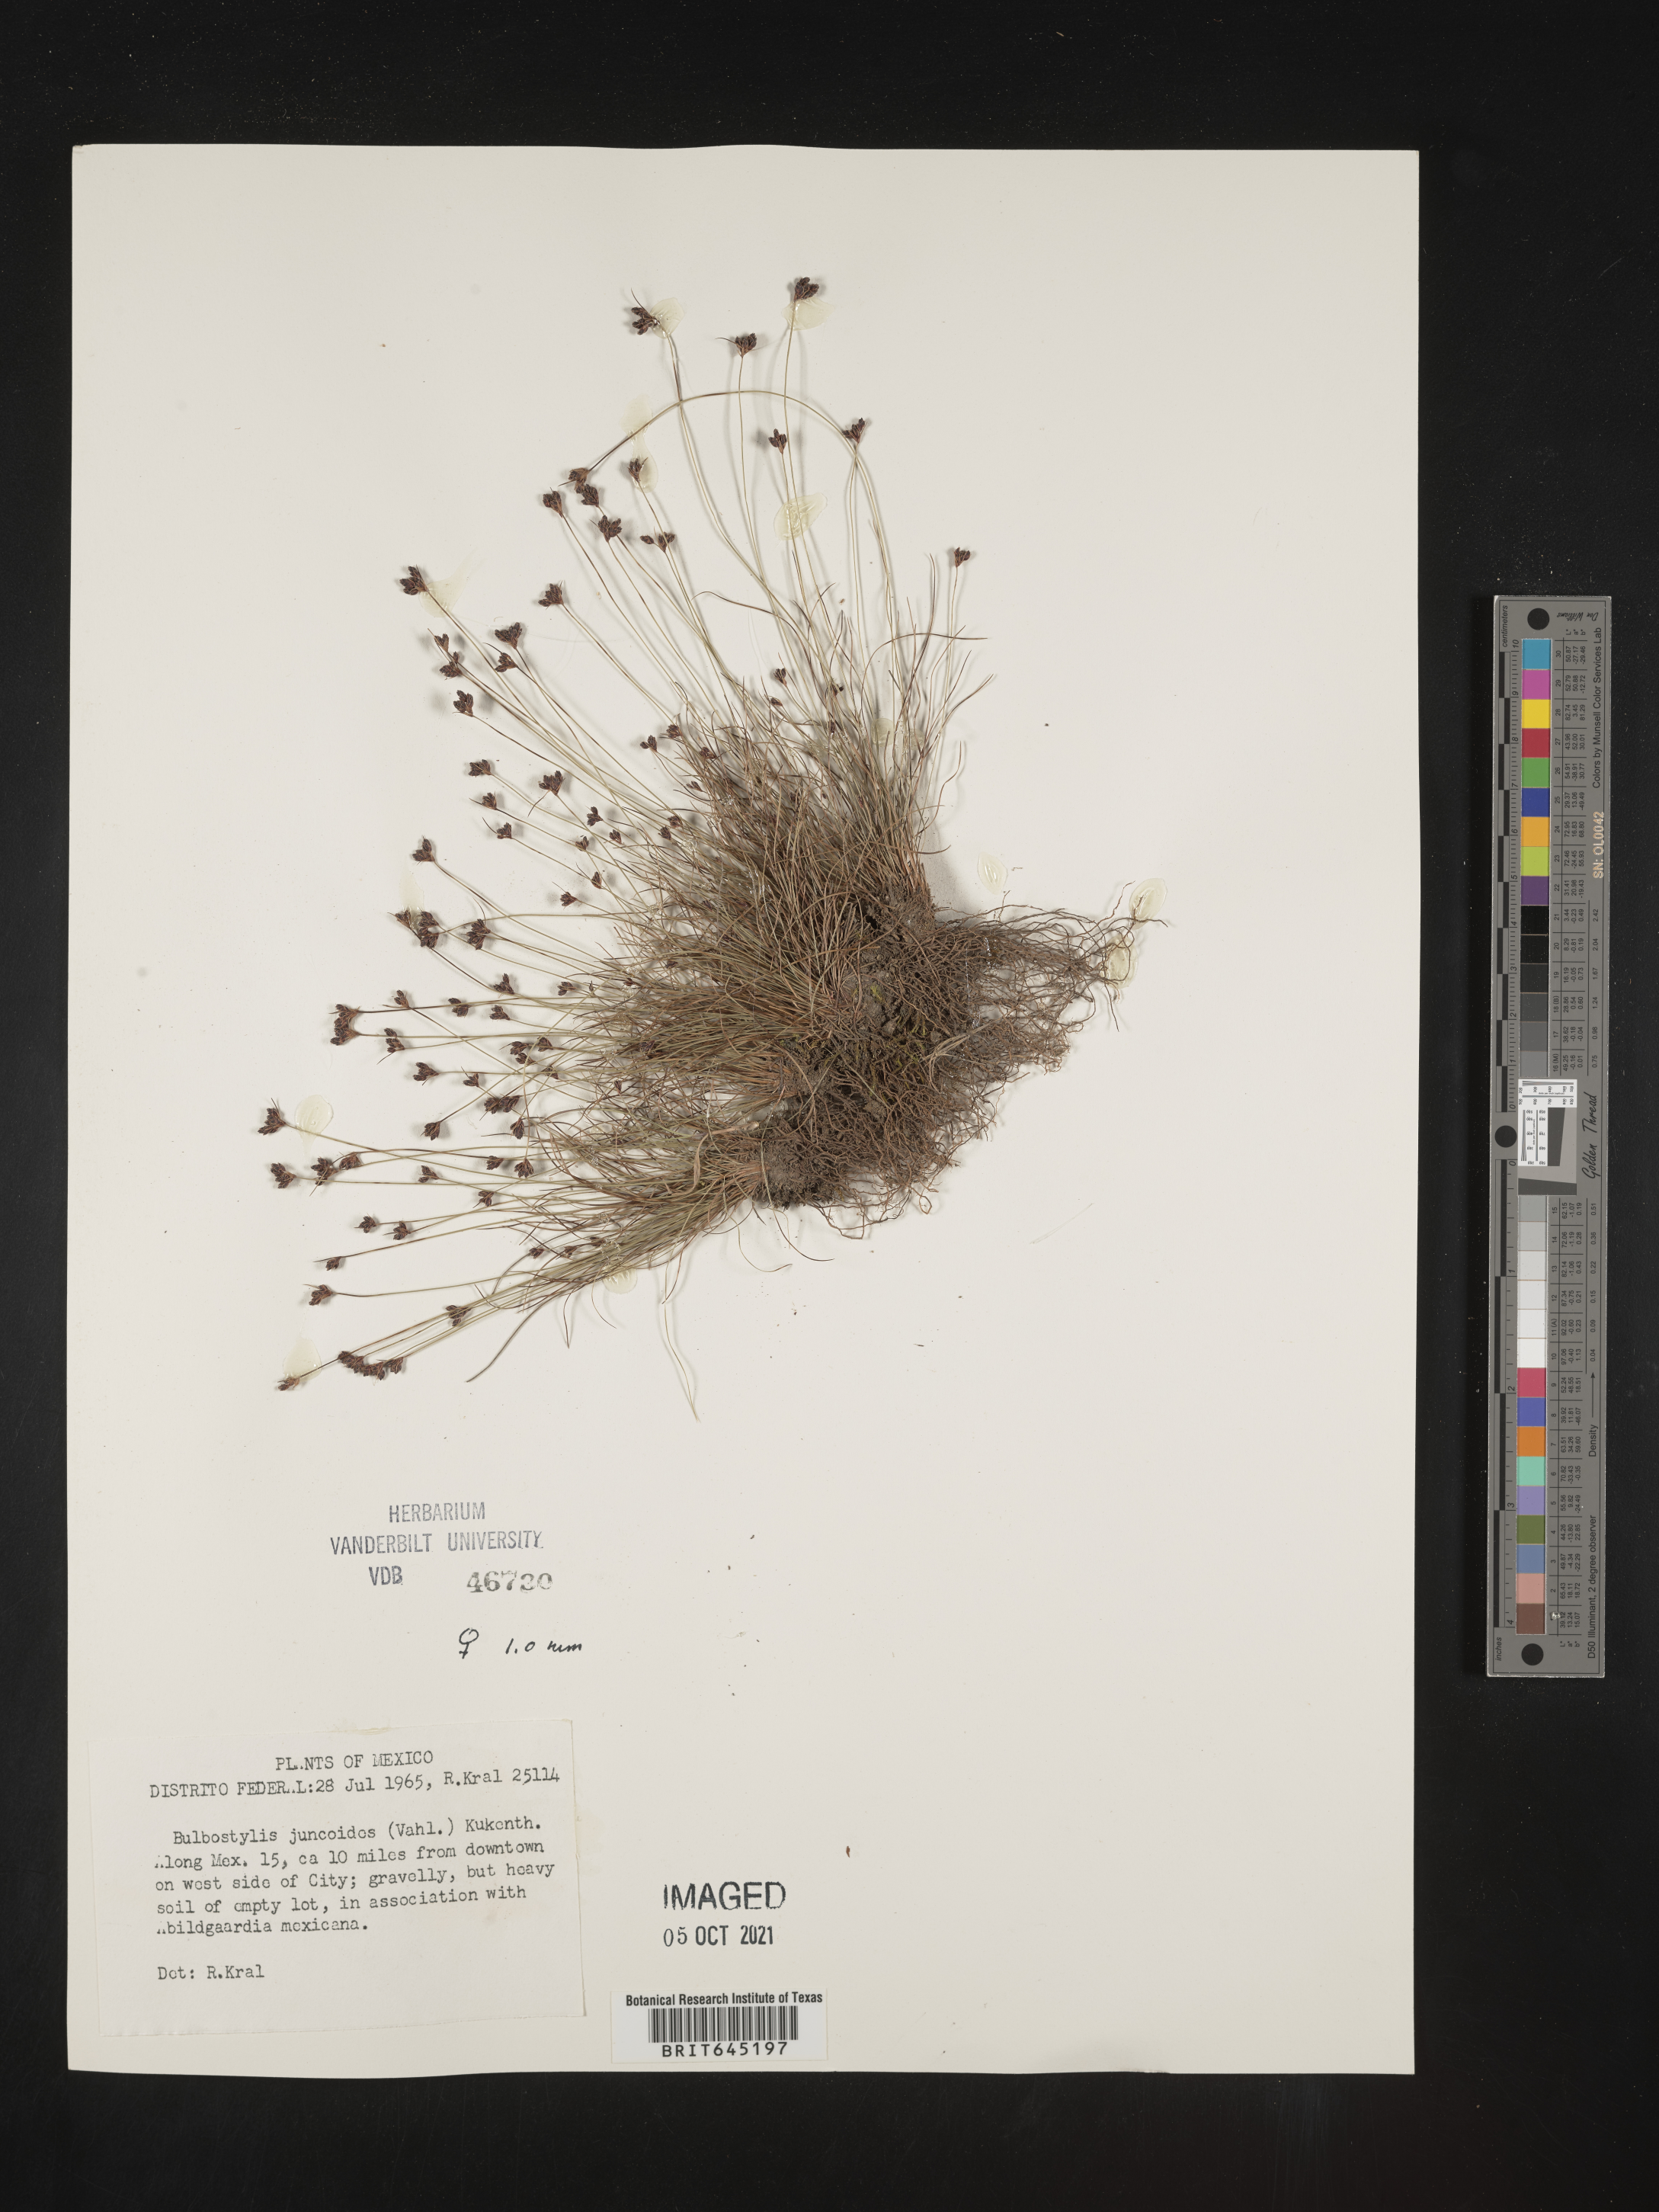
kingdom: Plantae
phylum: Tracheophyta
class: Liliopsida
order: Poales
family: Cyperaceae
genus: Bulbostylis
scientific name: Bulbostylis juncoides
